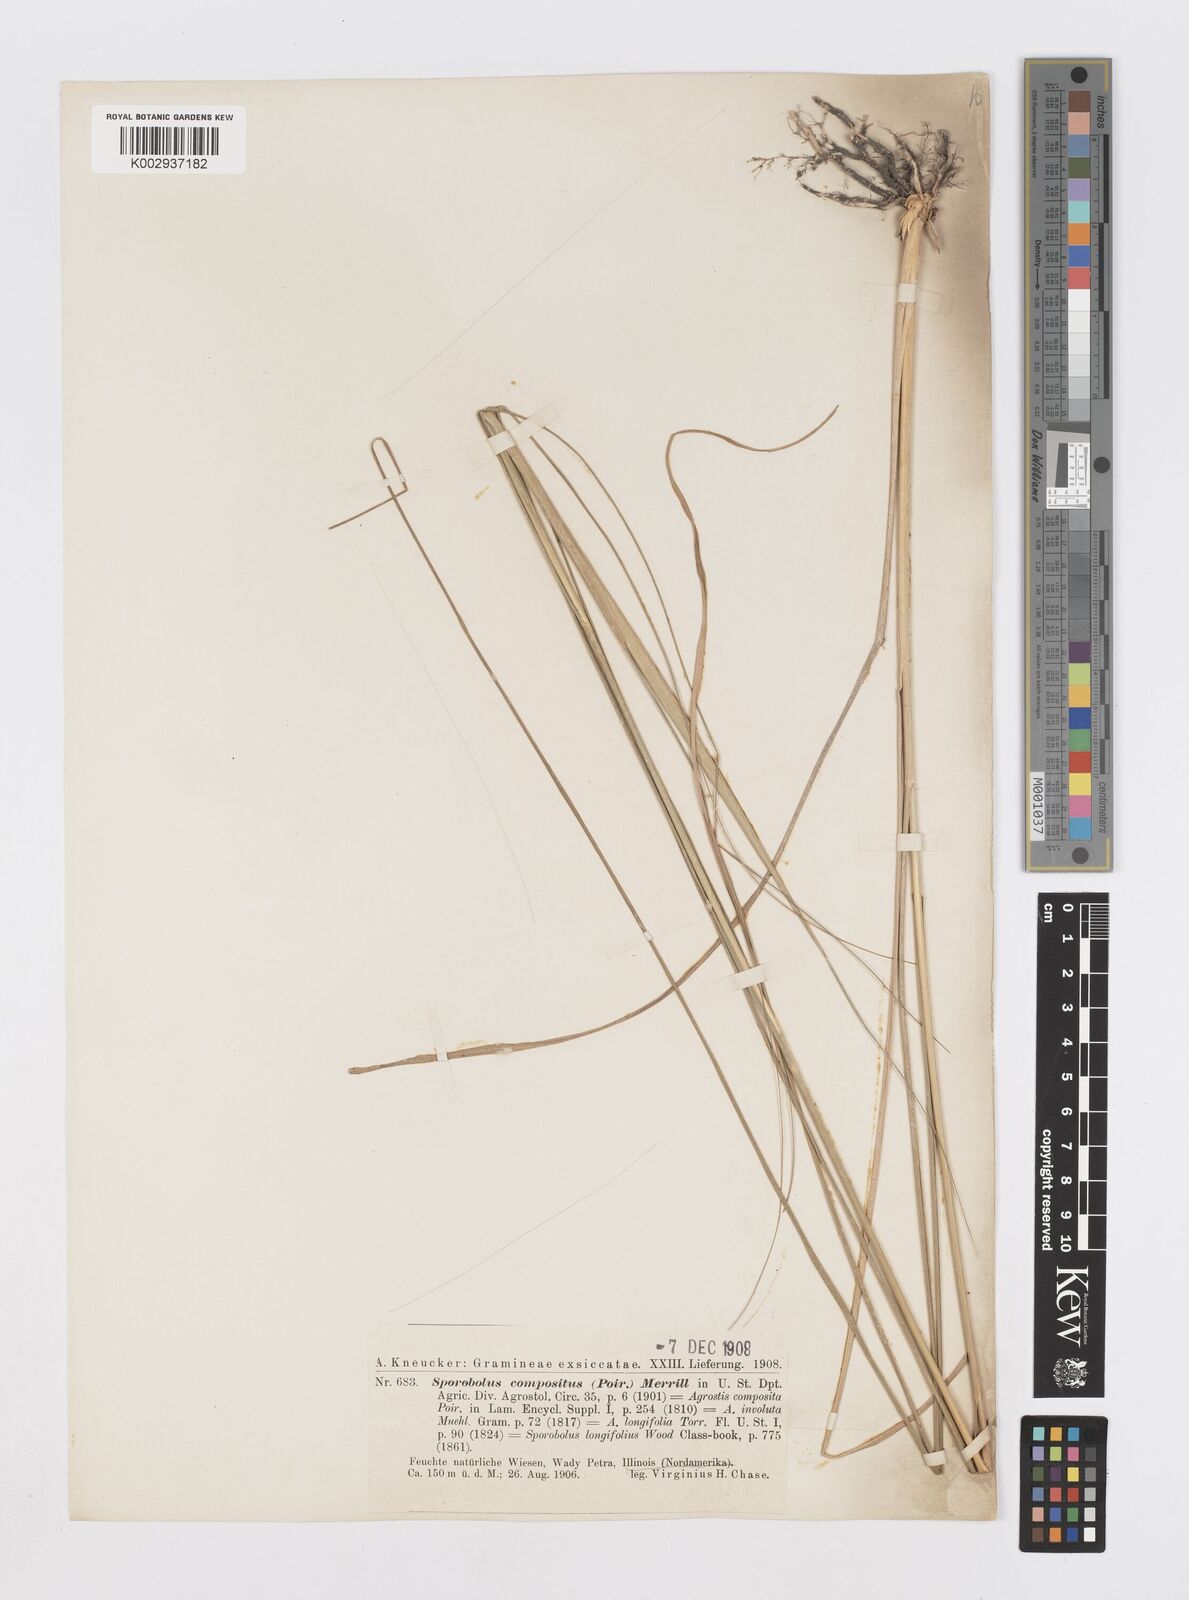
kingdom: Plantae
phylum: Tracheophyta
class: Liliopsida
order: Poales
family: Poaceae
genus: Sporobolus
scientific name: Sporobolus compositus
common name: Rough dropseed
